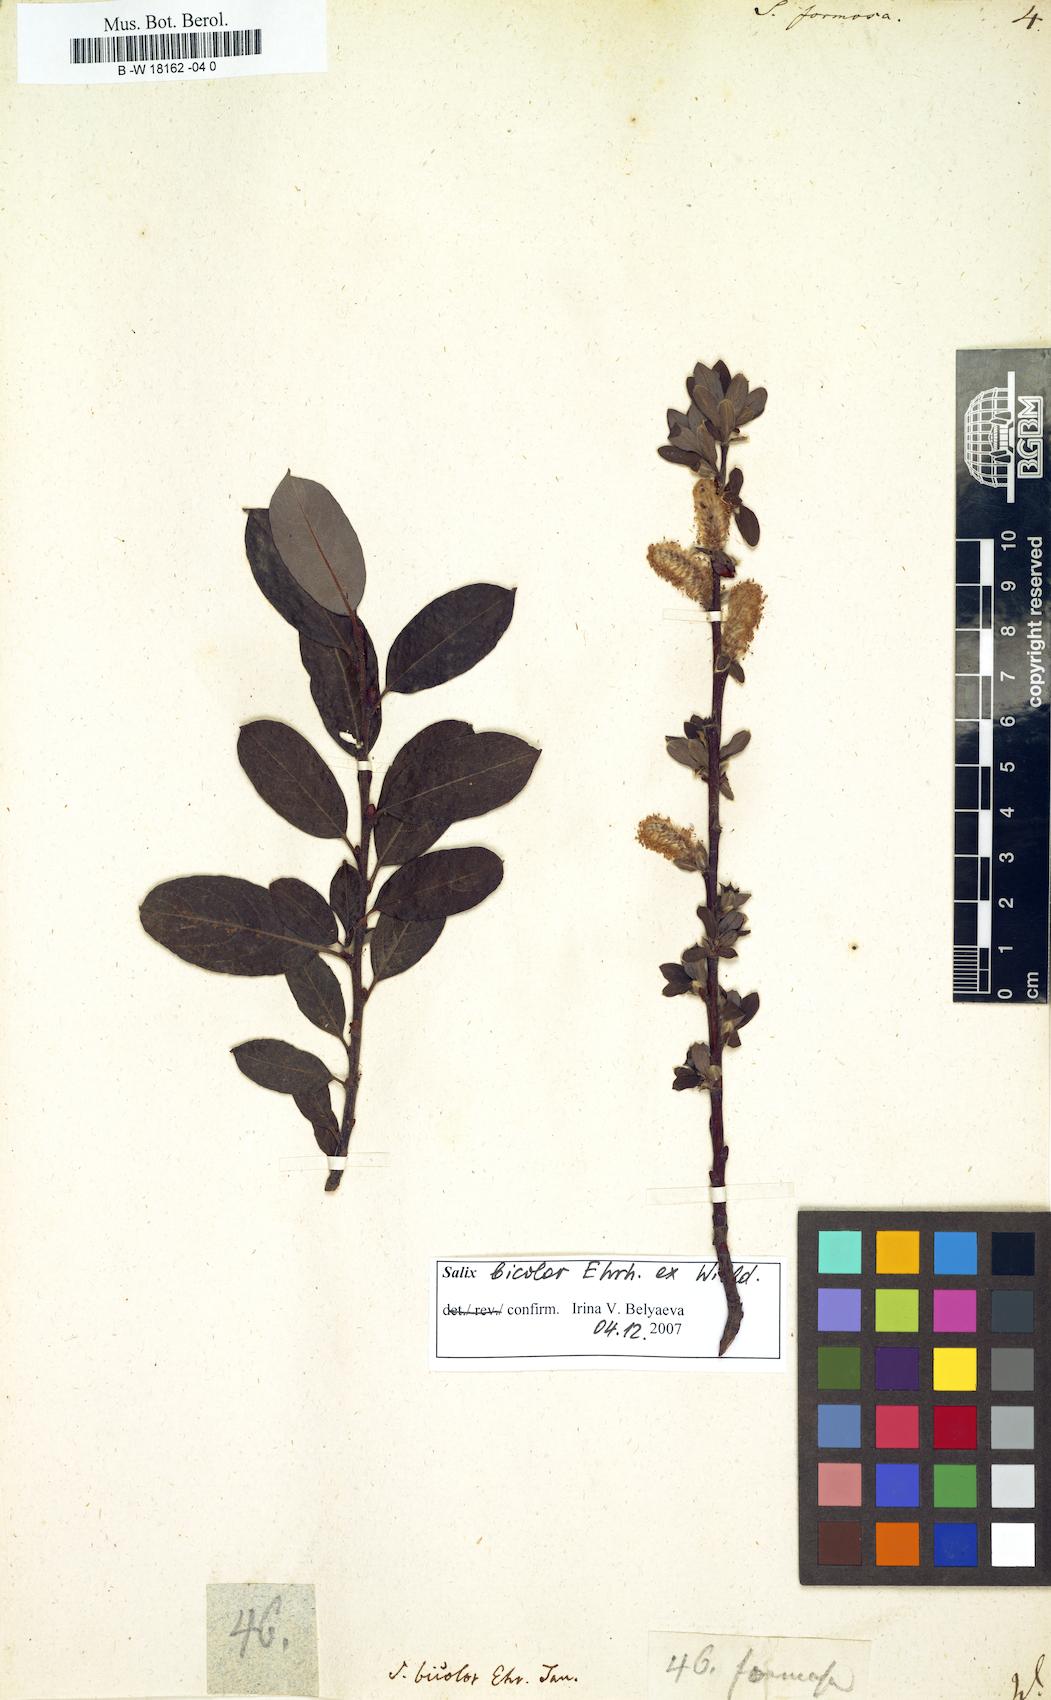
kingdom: Plantae
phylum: Tracheophyta
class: Magnoliopsida
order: Malpighiales
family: Salicaceae
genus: Salix
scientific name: Salix foetida
